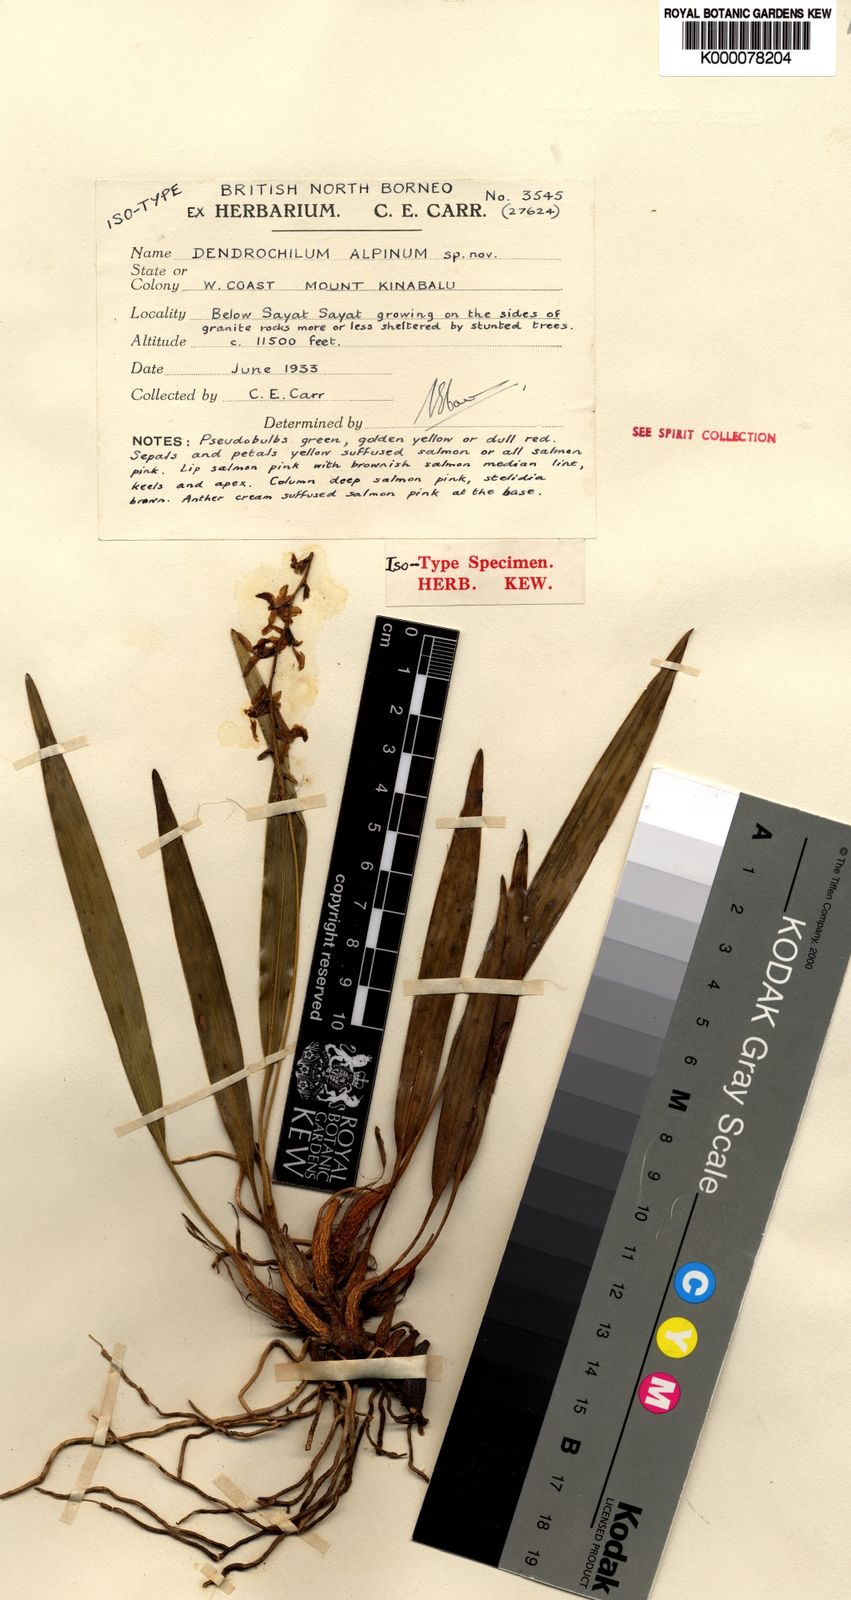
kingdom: Plantae
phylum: Tracheophyta
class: Liliopsida
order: Asparagales
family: Orchidaceae
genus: Coelogyne
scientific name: Coelogyne alpina
